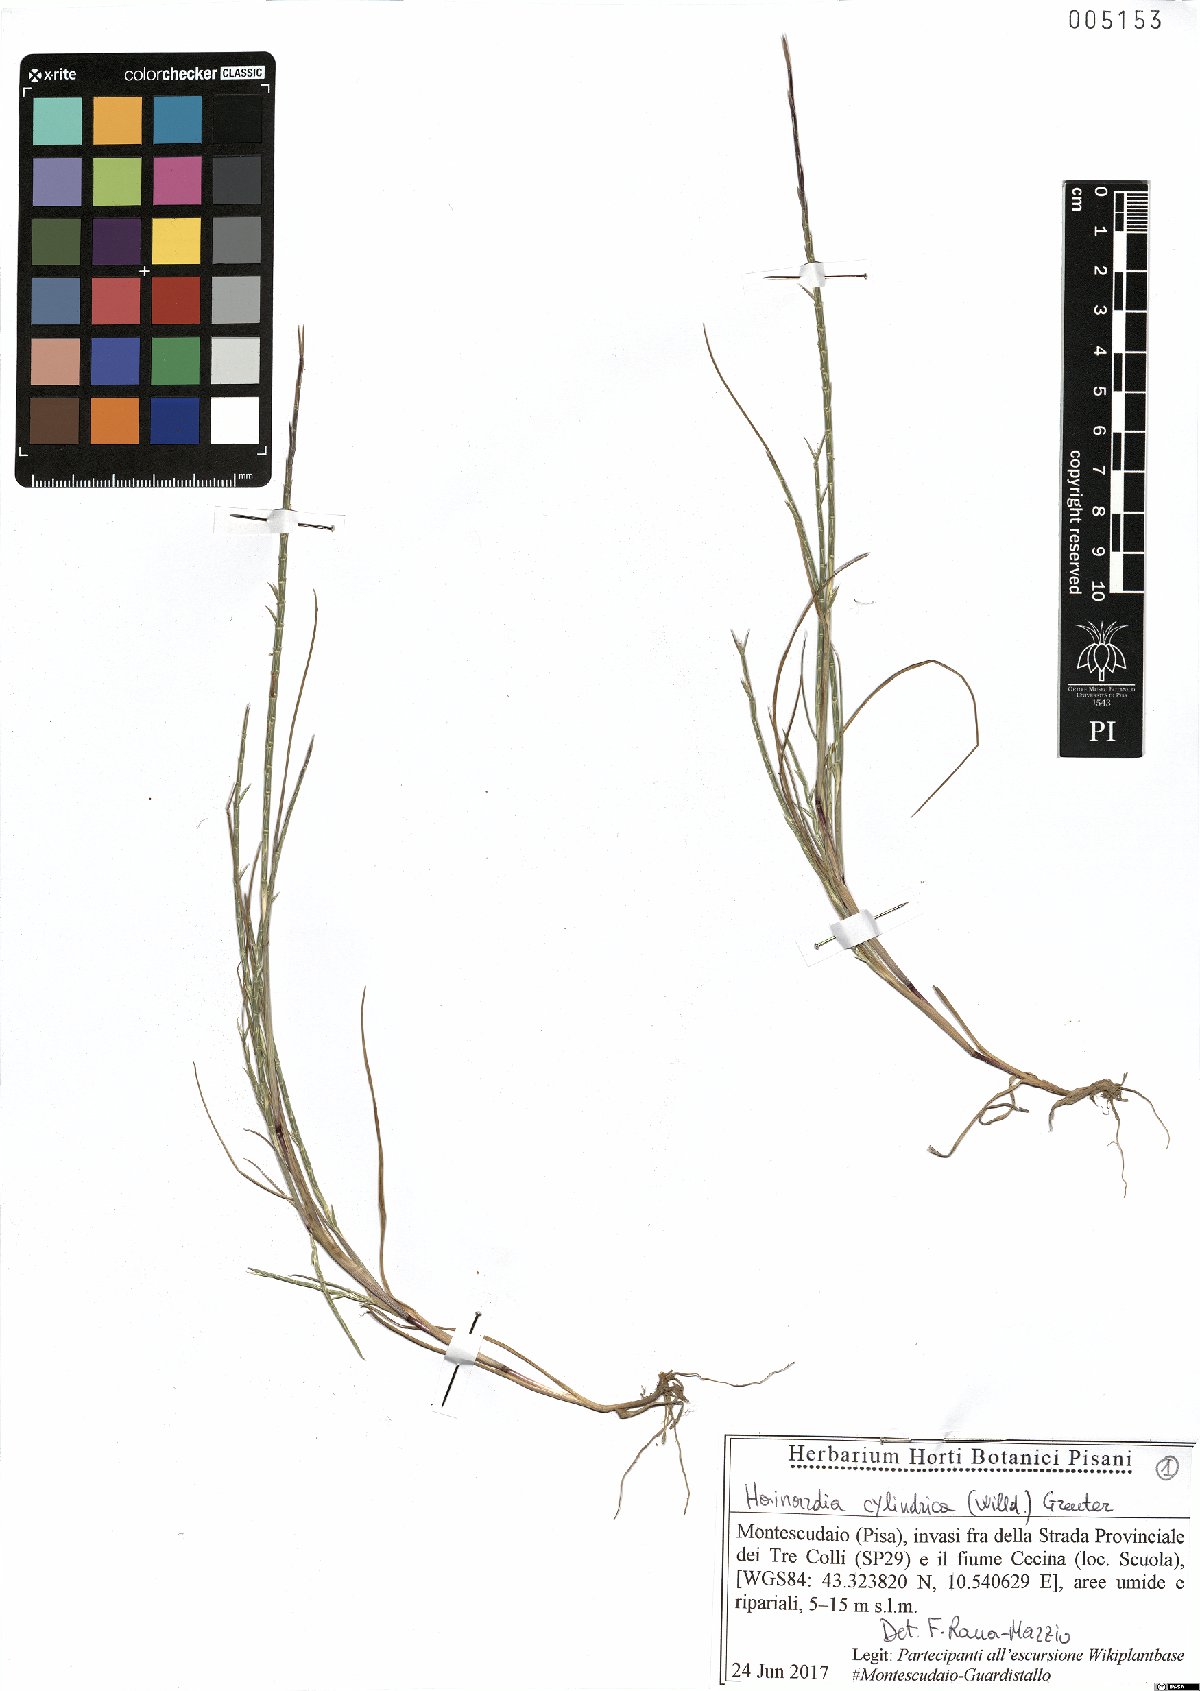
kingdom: Plantae
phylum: Tracheophyta
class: Liliopsida
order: Poales
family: Poaceae
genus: Parapholis
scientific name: Parapholis cylindrica
